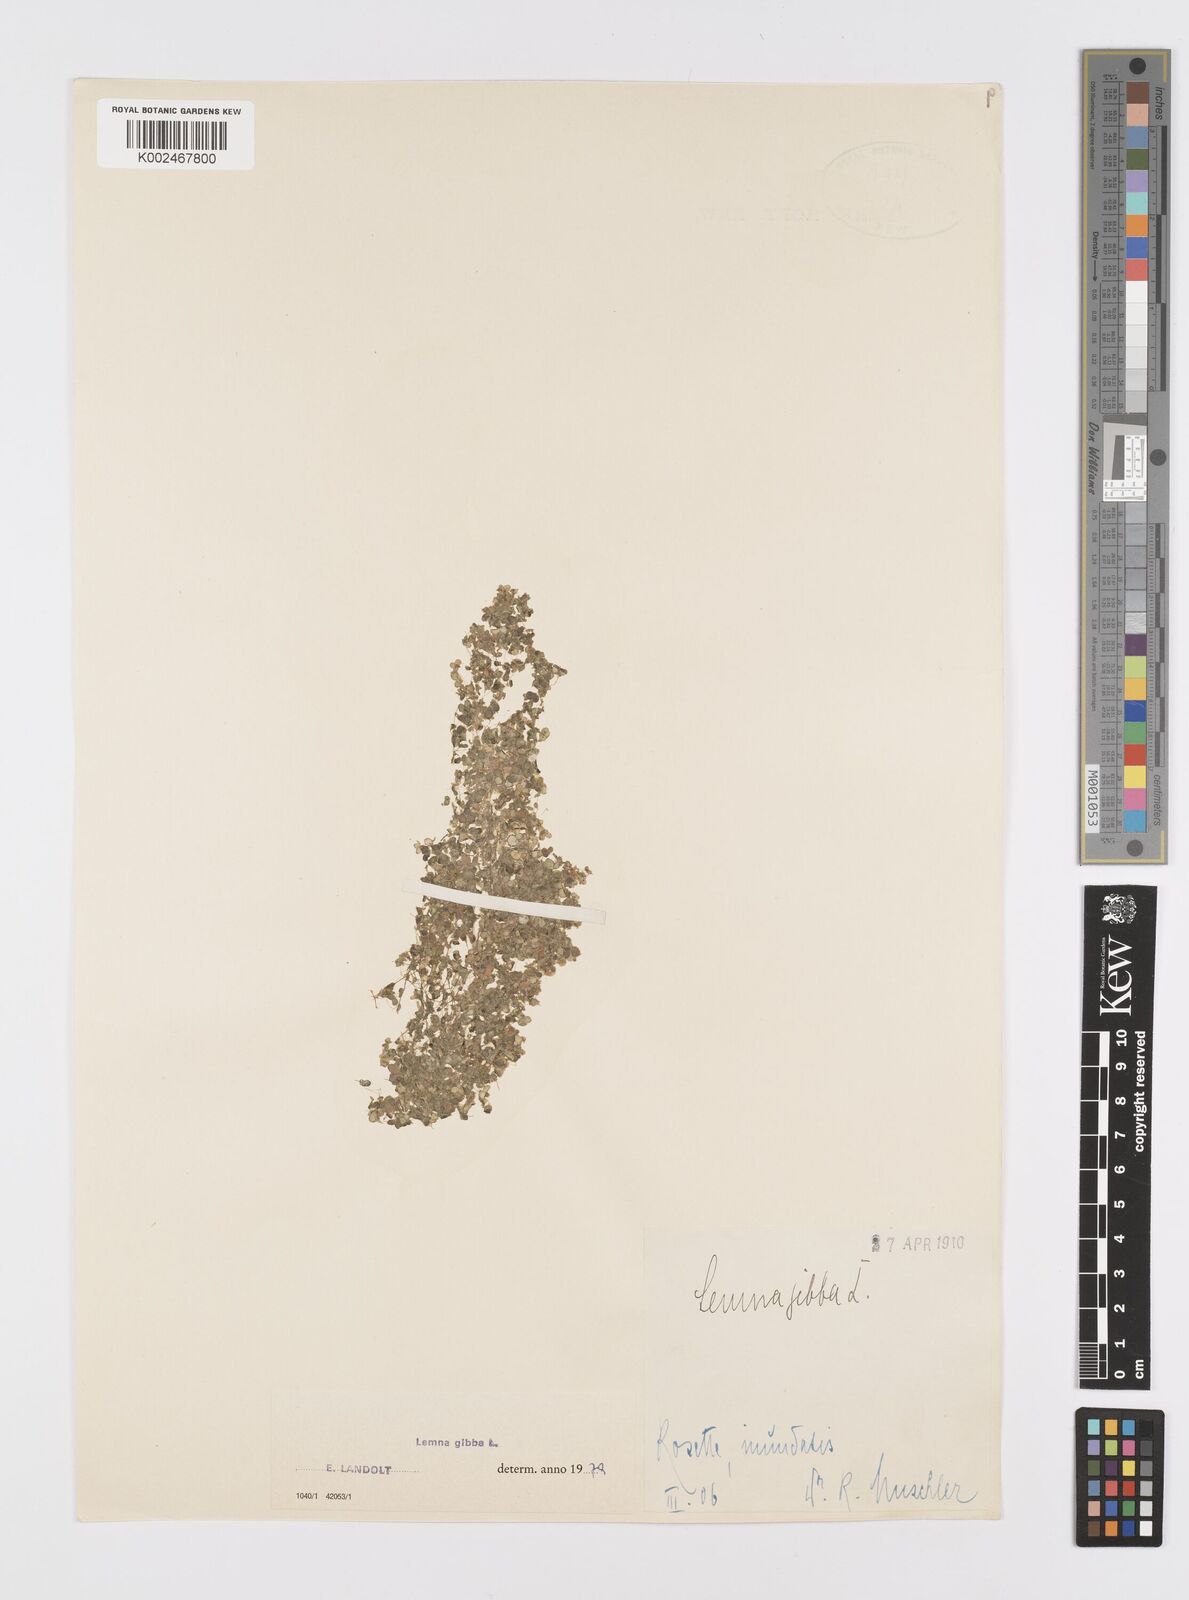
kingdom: Plantae
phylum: Tracheophyta
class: Liliopsida
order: Alismatales
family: Araceae
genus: Lemna
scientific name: Lemna gibba
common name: Fat duckweed
